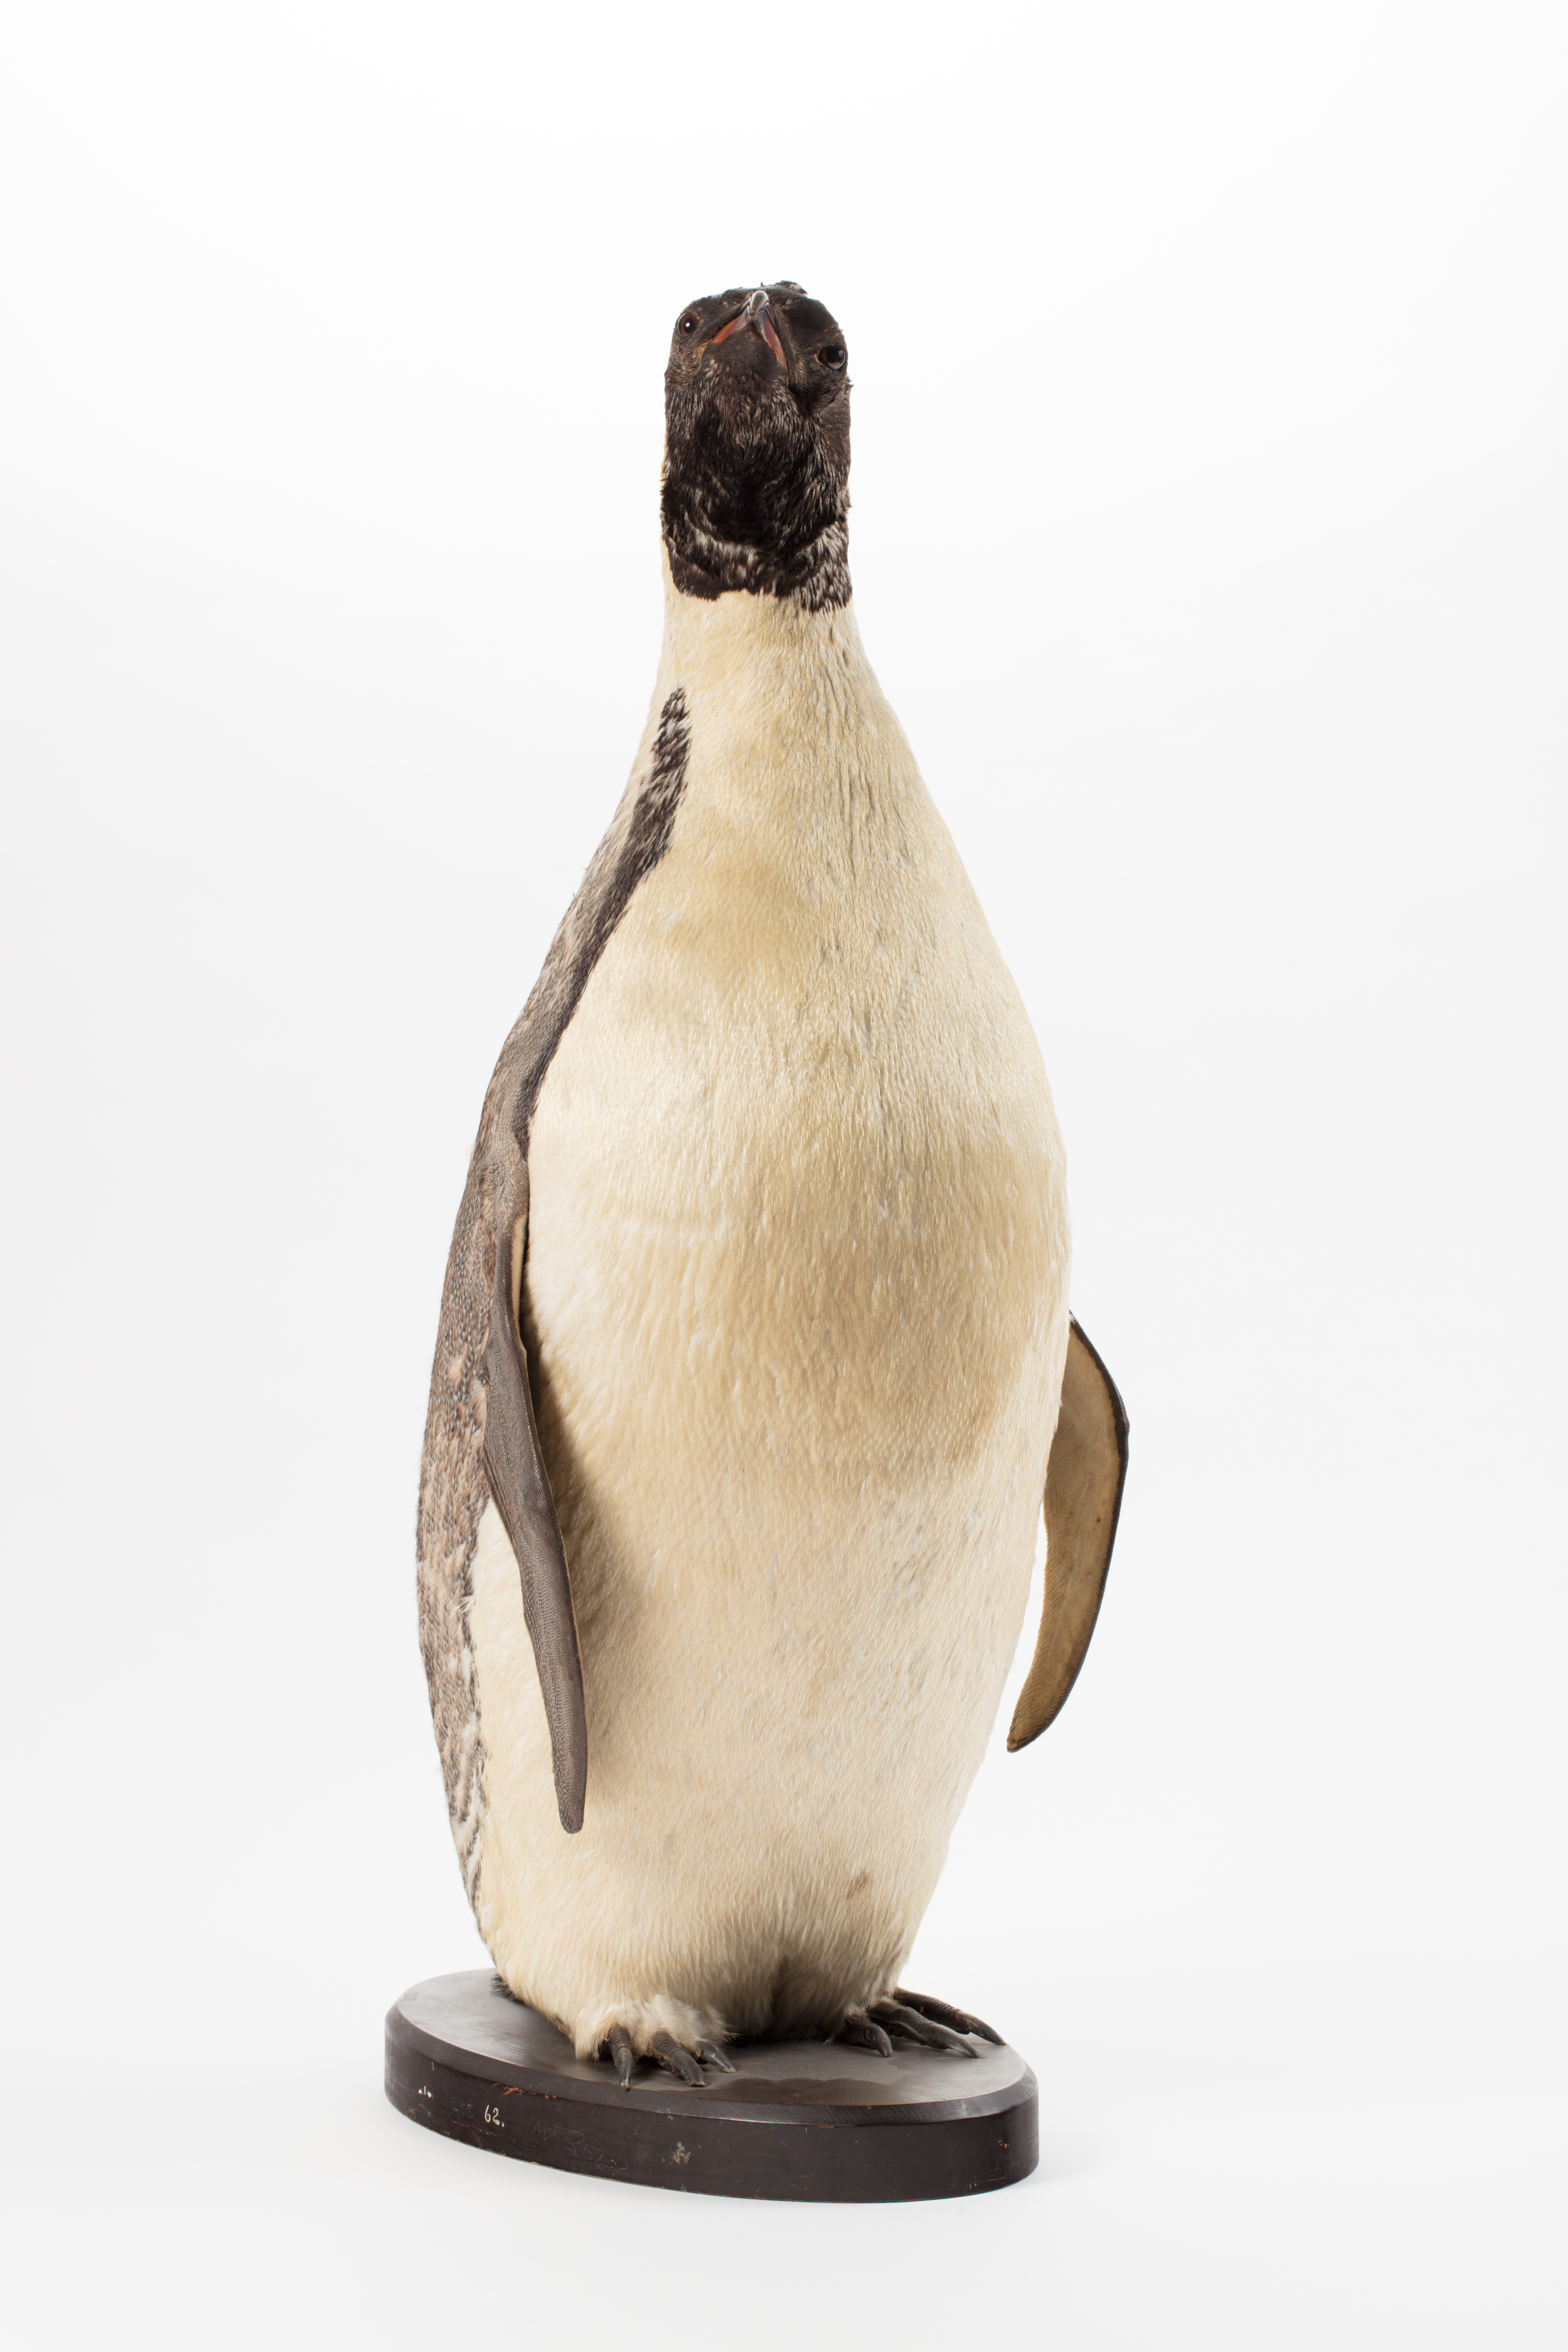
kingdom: Animalia
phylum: Chordata
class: Aves
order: Sphenisciformes
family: Spheniscidae
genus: Aptenodytes
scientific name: Aptenodytes forsteri
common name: Emperor penguin
